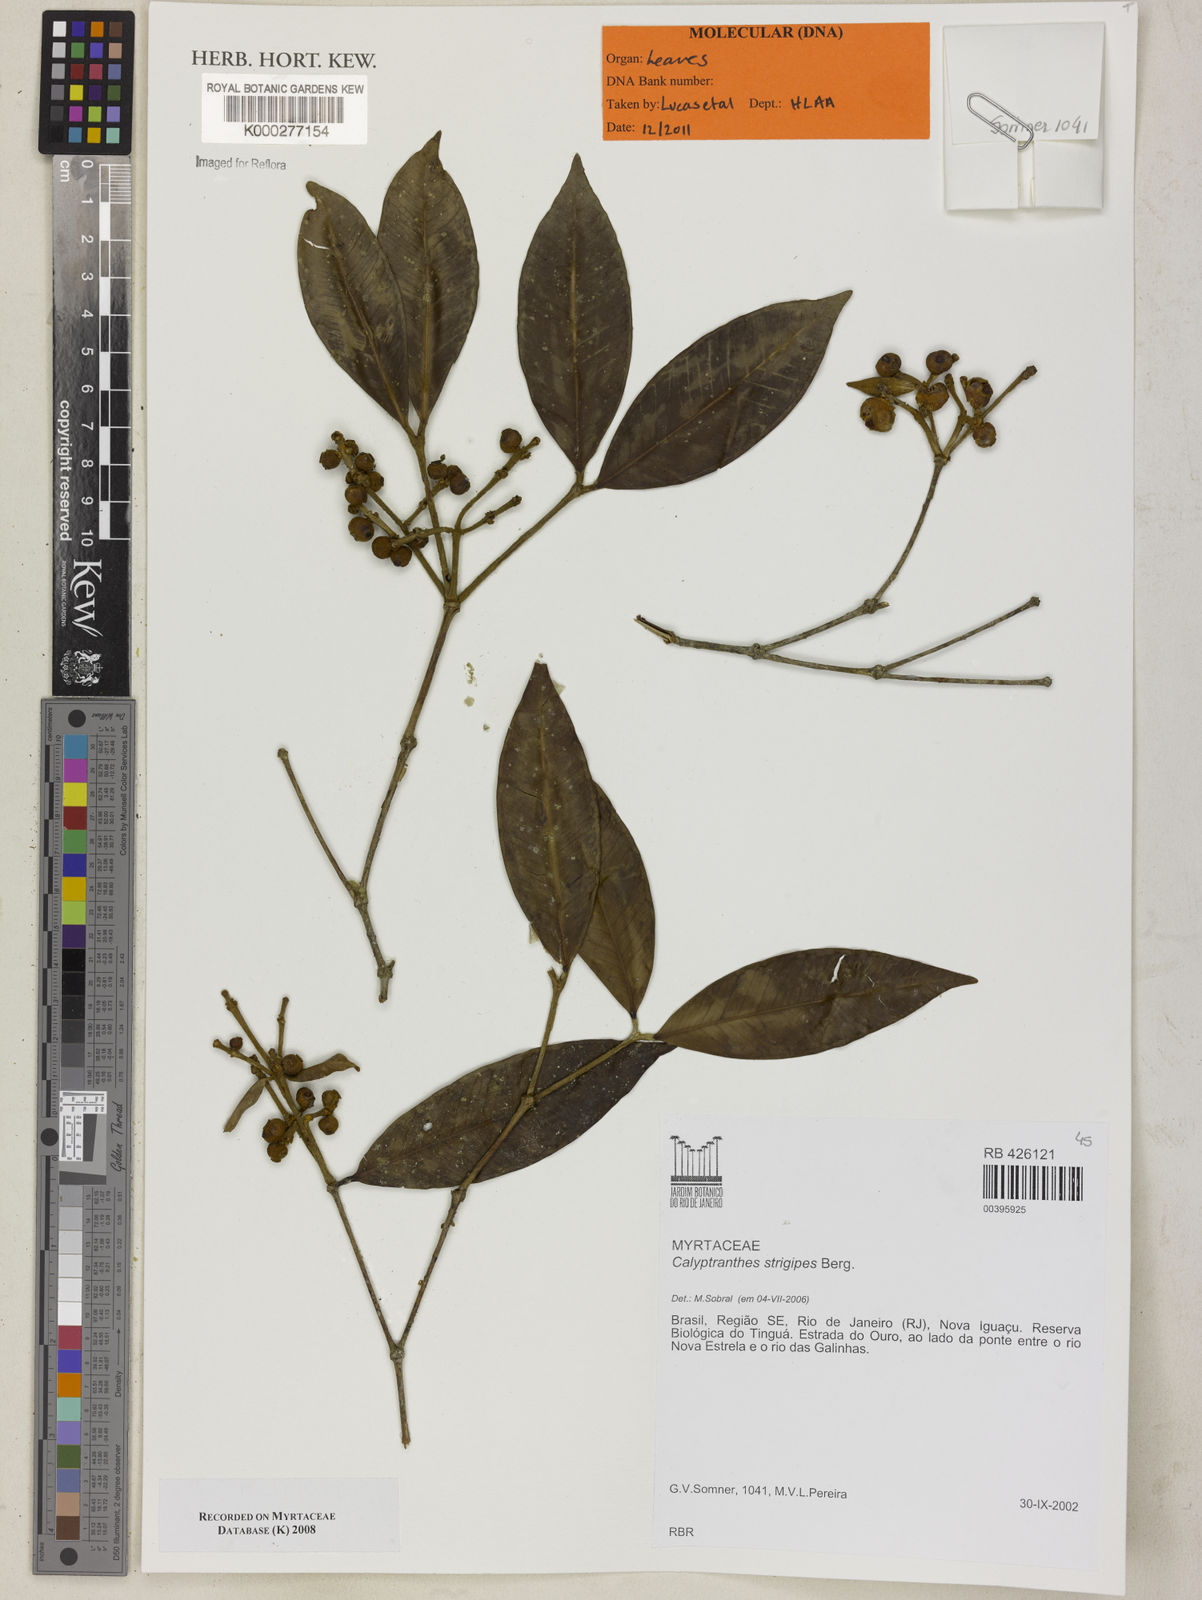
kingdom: Plantae
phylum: Tracheophyta
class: Magnoliopsida
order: Myrtales
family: Myrtaceae
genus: Myrcia
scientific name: Myrcia strigosa
